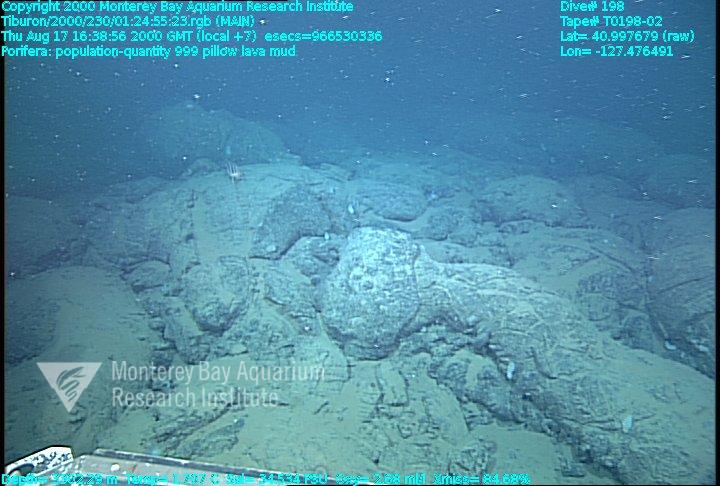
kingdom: Animalia
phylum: Porifera
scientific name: Porifera
